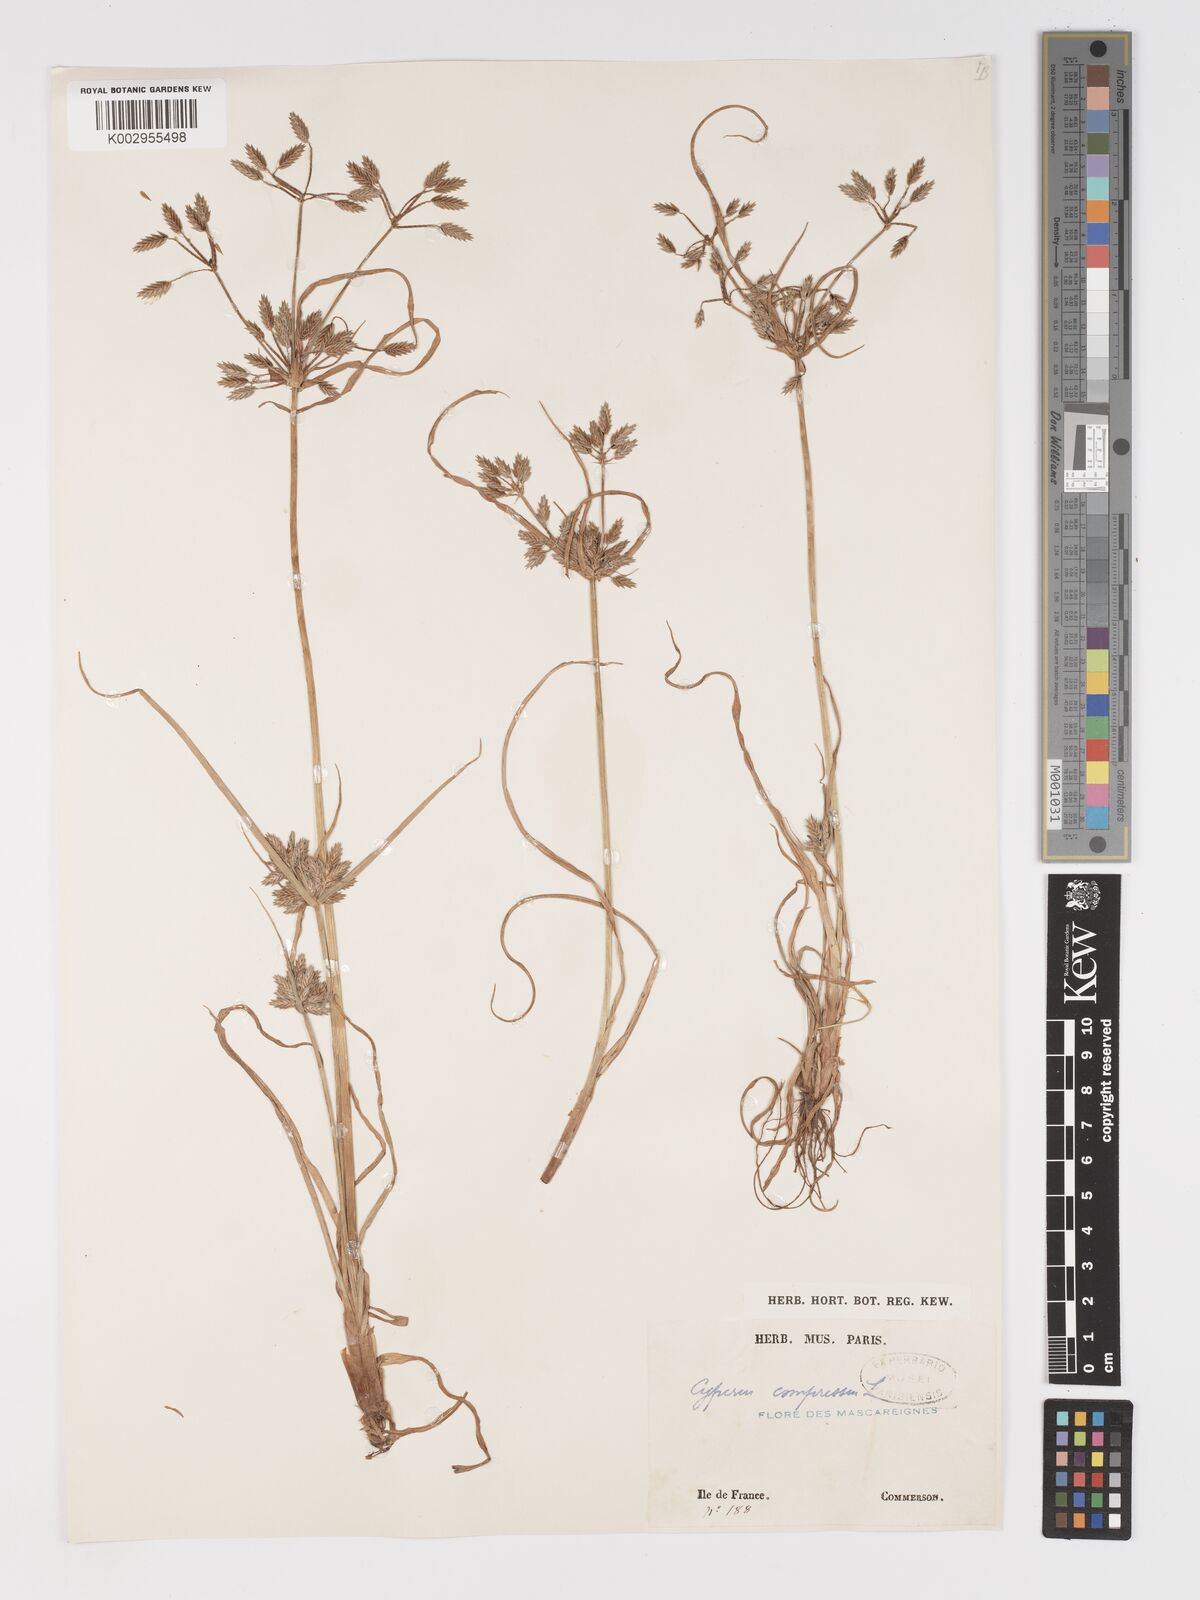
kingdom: Plantae
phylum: Tracheophyta
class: Liliopsida
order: Poales
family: Cyperaceae
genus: Cyperus
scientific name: Cyperus compressus
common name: Poorland flatsedge
